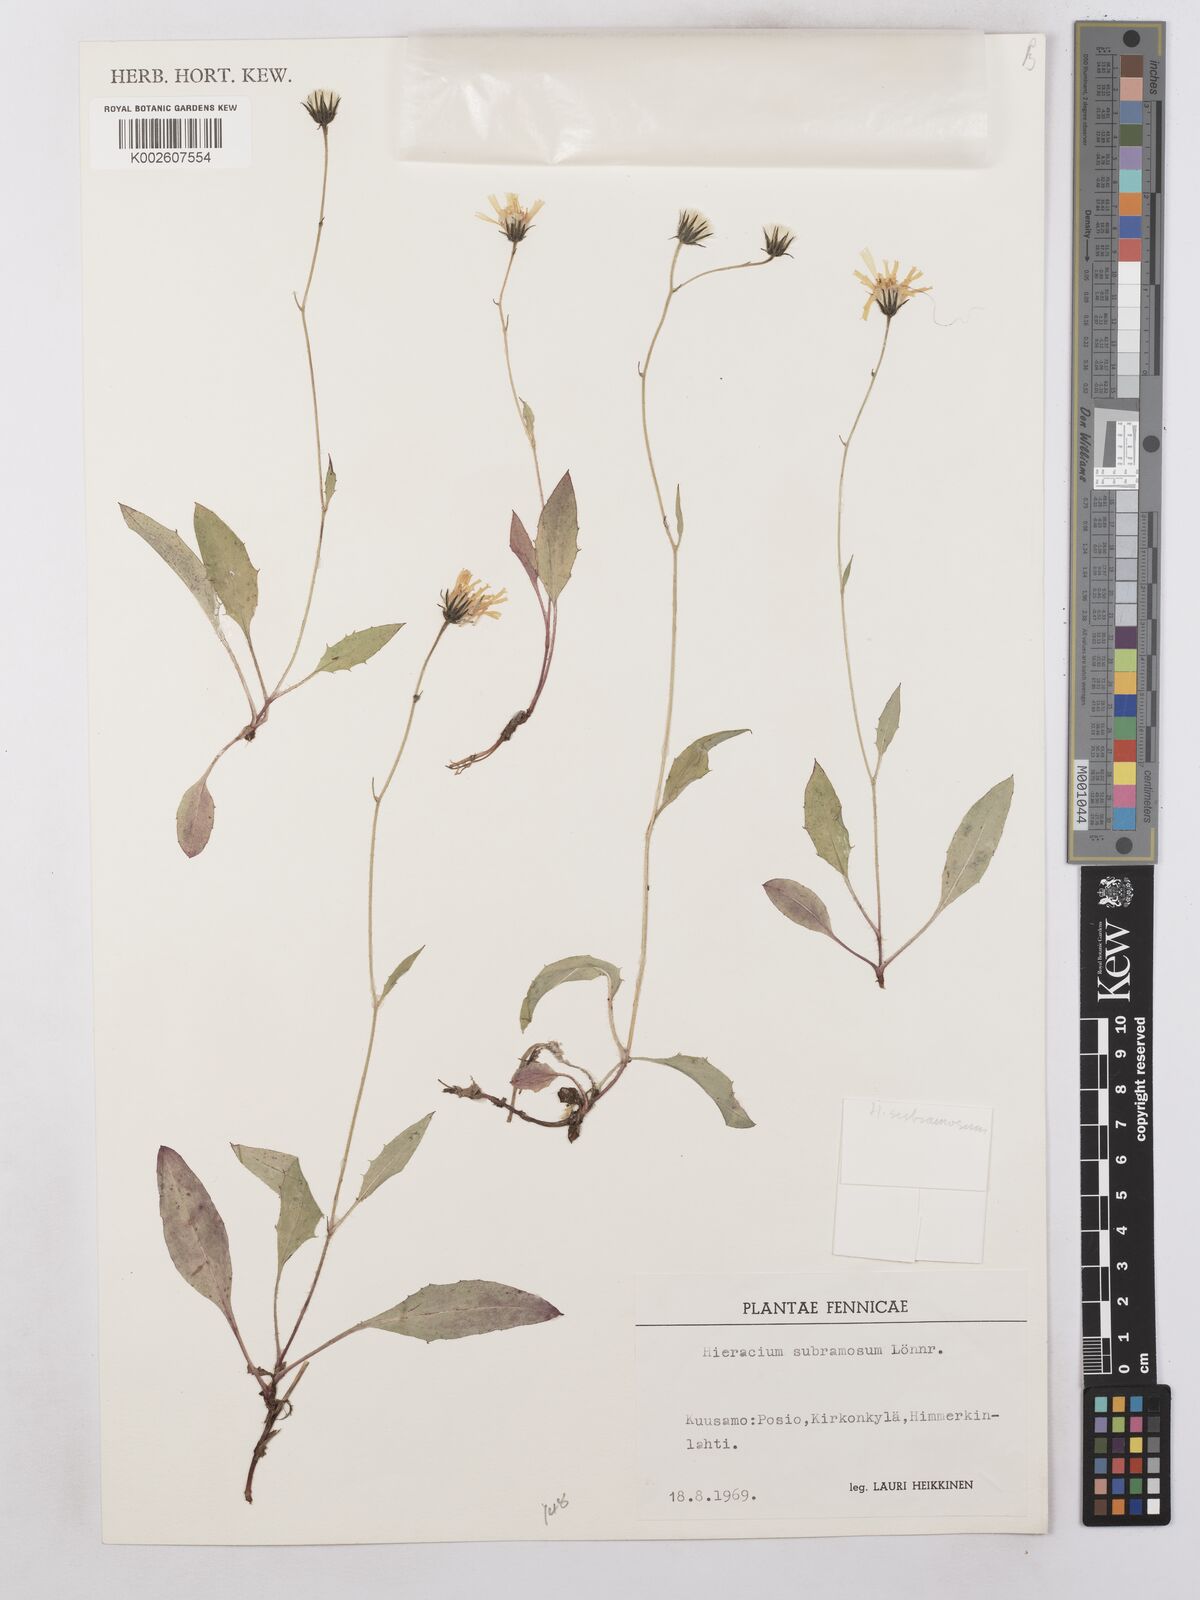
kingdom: Plantae
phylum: Tracheophyta
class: Magnoliopsida
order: Asterales
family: Asteraceae
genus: Hieracium
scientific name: Hieracium subramosum
